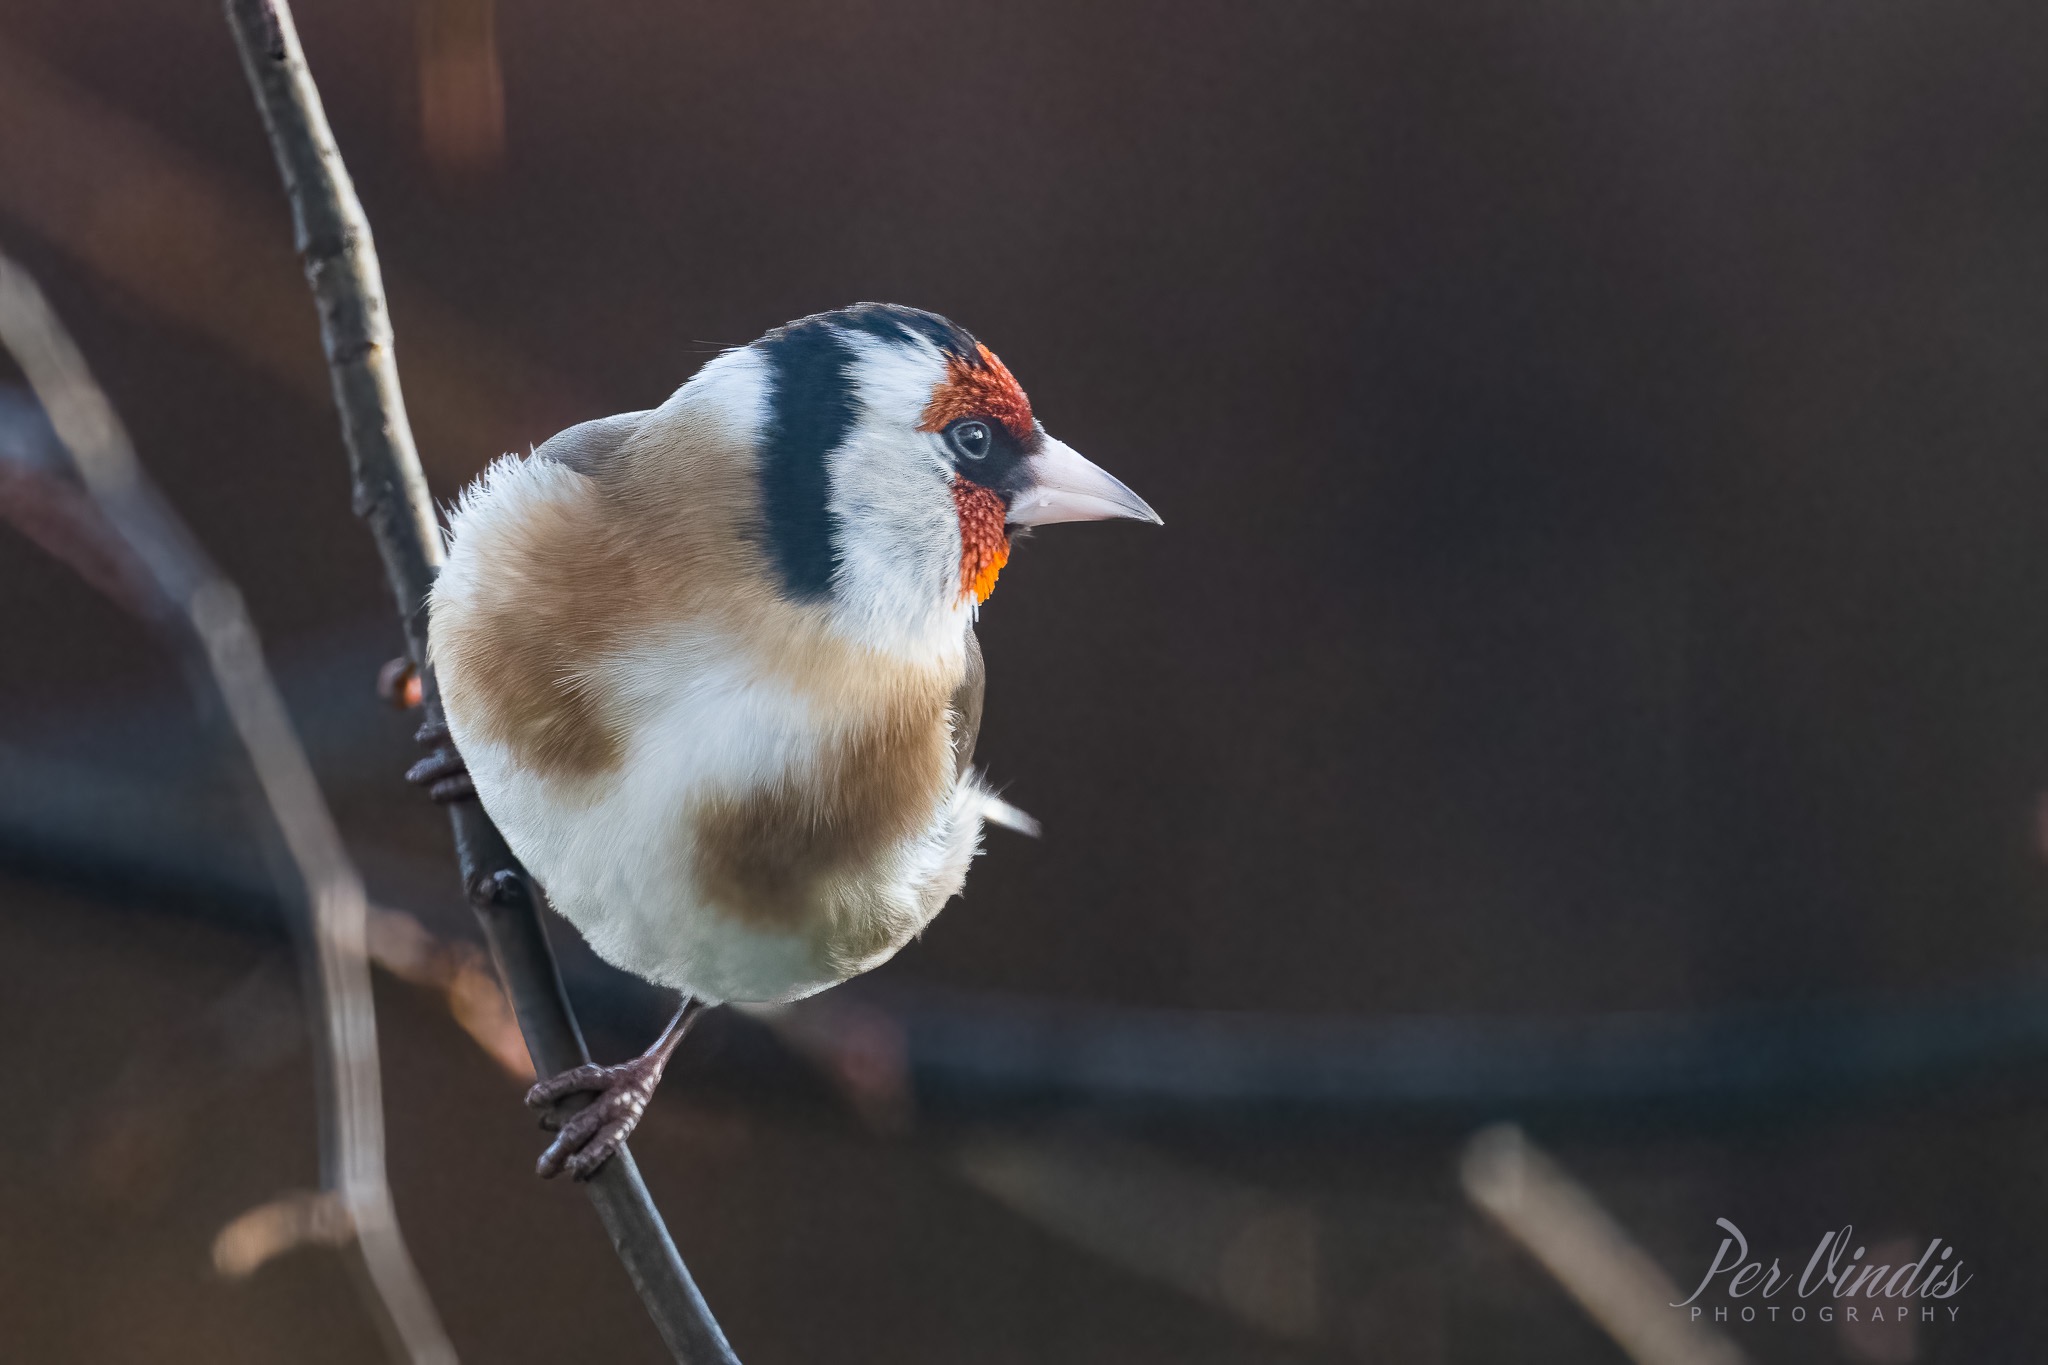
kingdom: Animalia
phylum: Chordata
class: Aves
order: Passeriformes
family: Fringillidae
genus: Carduelis
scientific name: Carduelis carduelis
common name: Stillits
